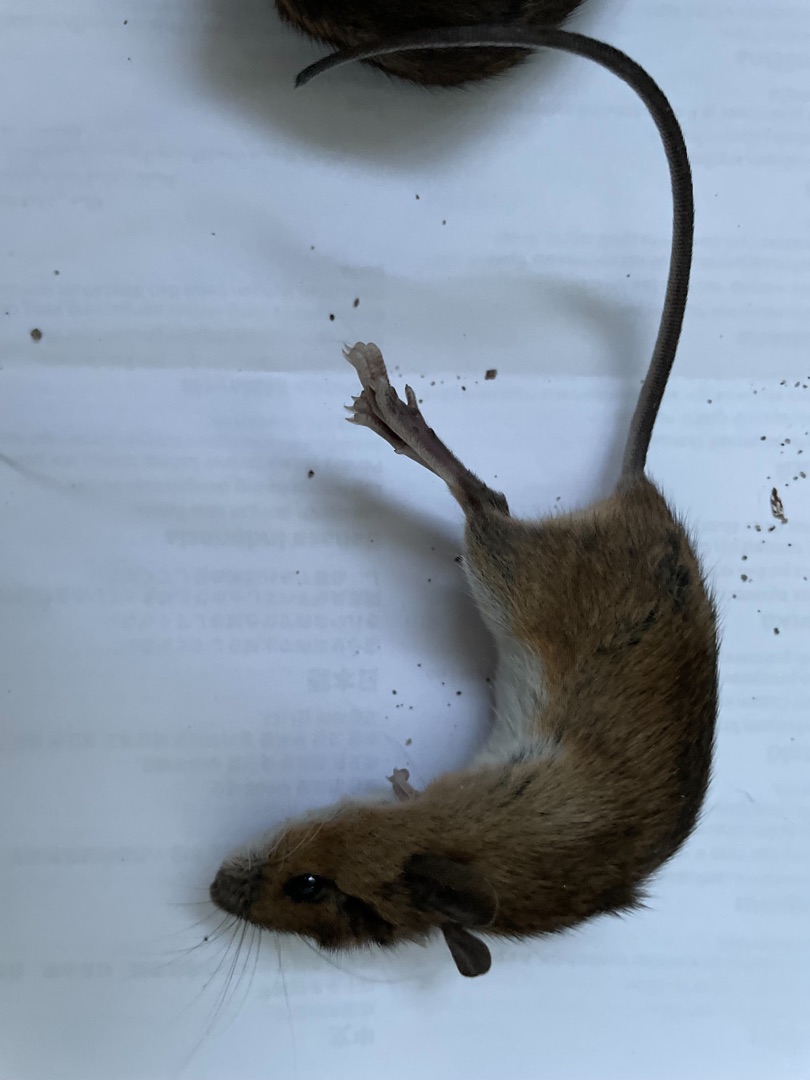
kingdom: Animalia
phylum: Chordata
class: Mammalia
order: Rodentia
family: Muridae
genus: Rattus
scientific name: Rattus norvegicus
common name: Brun rotte
